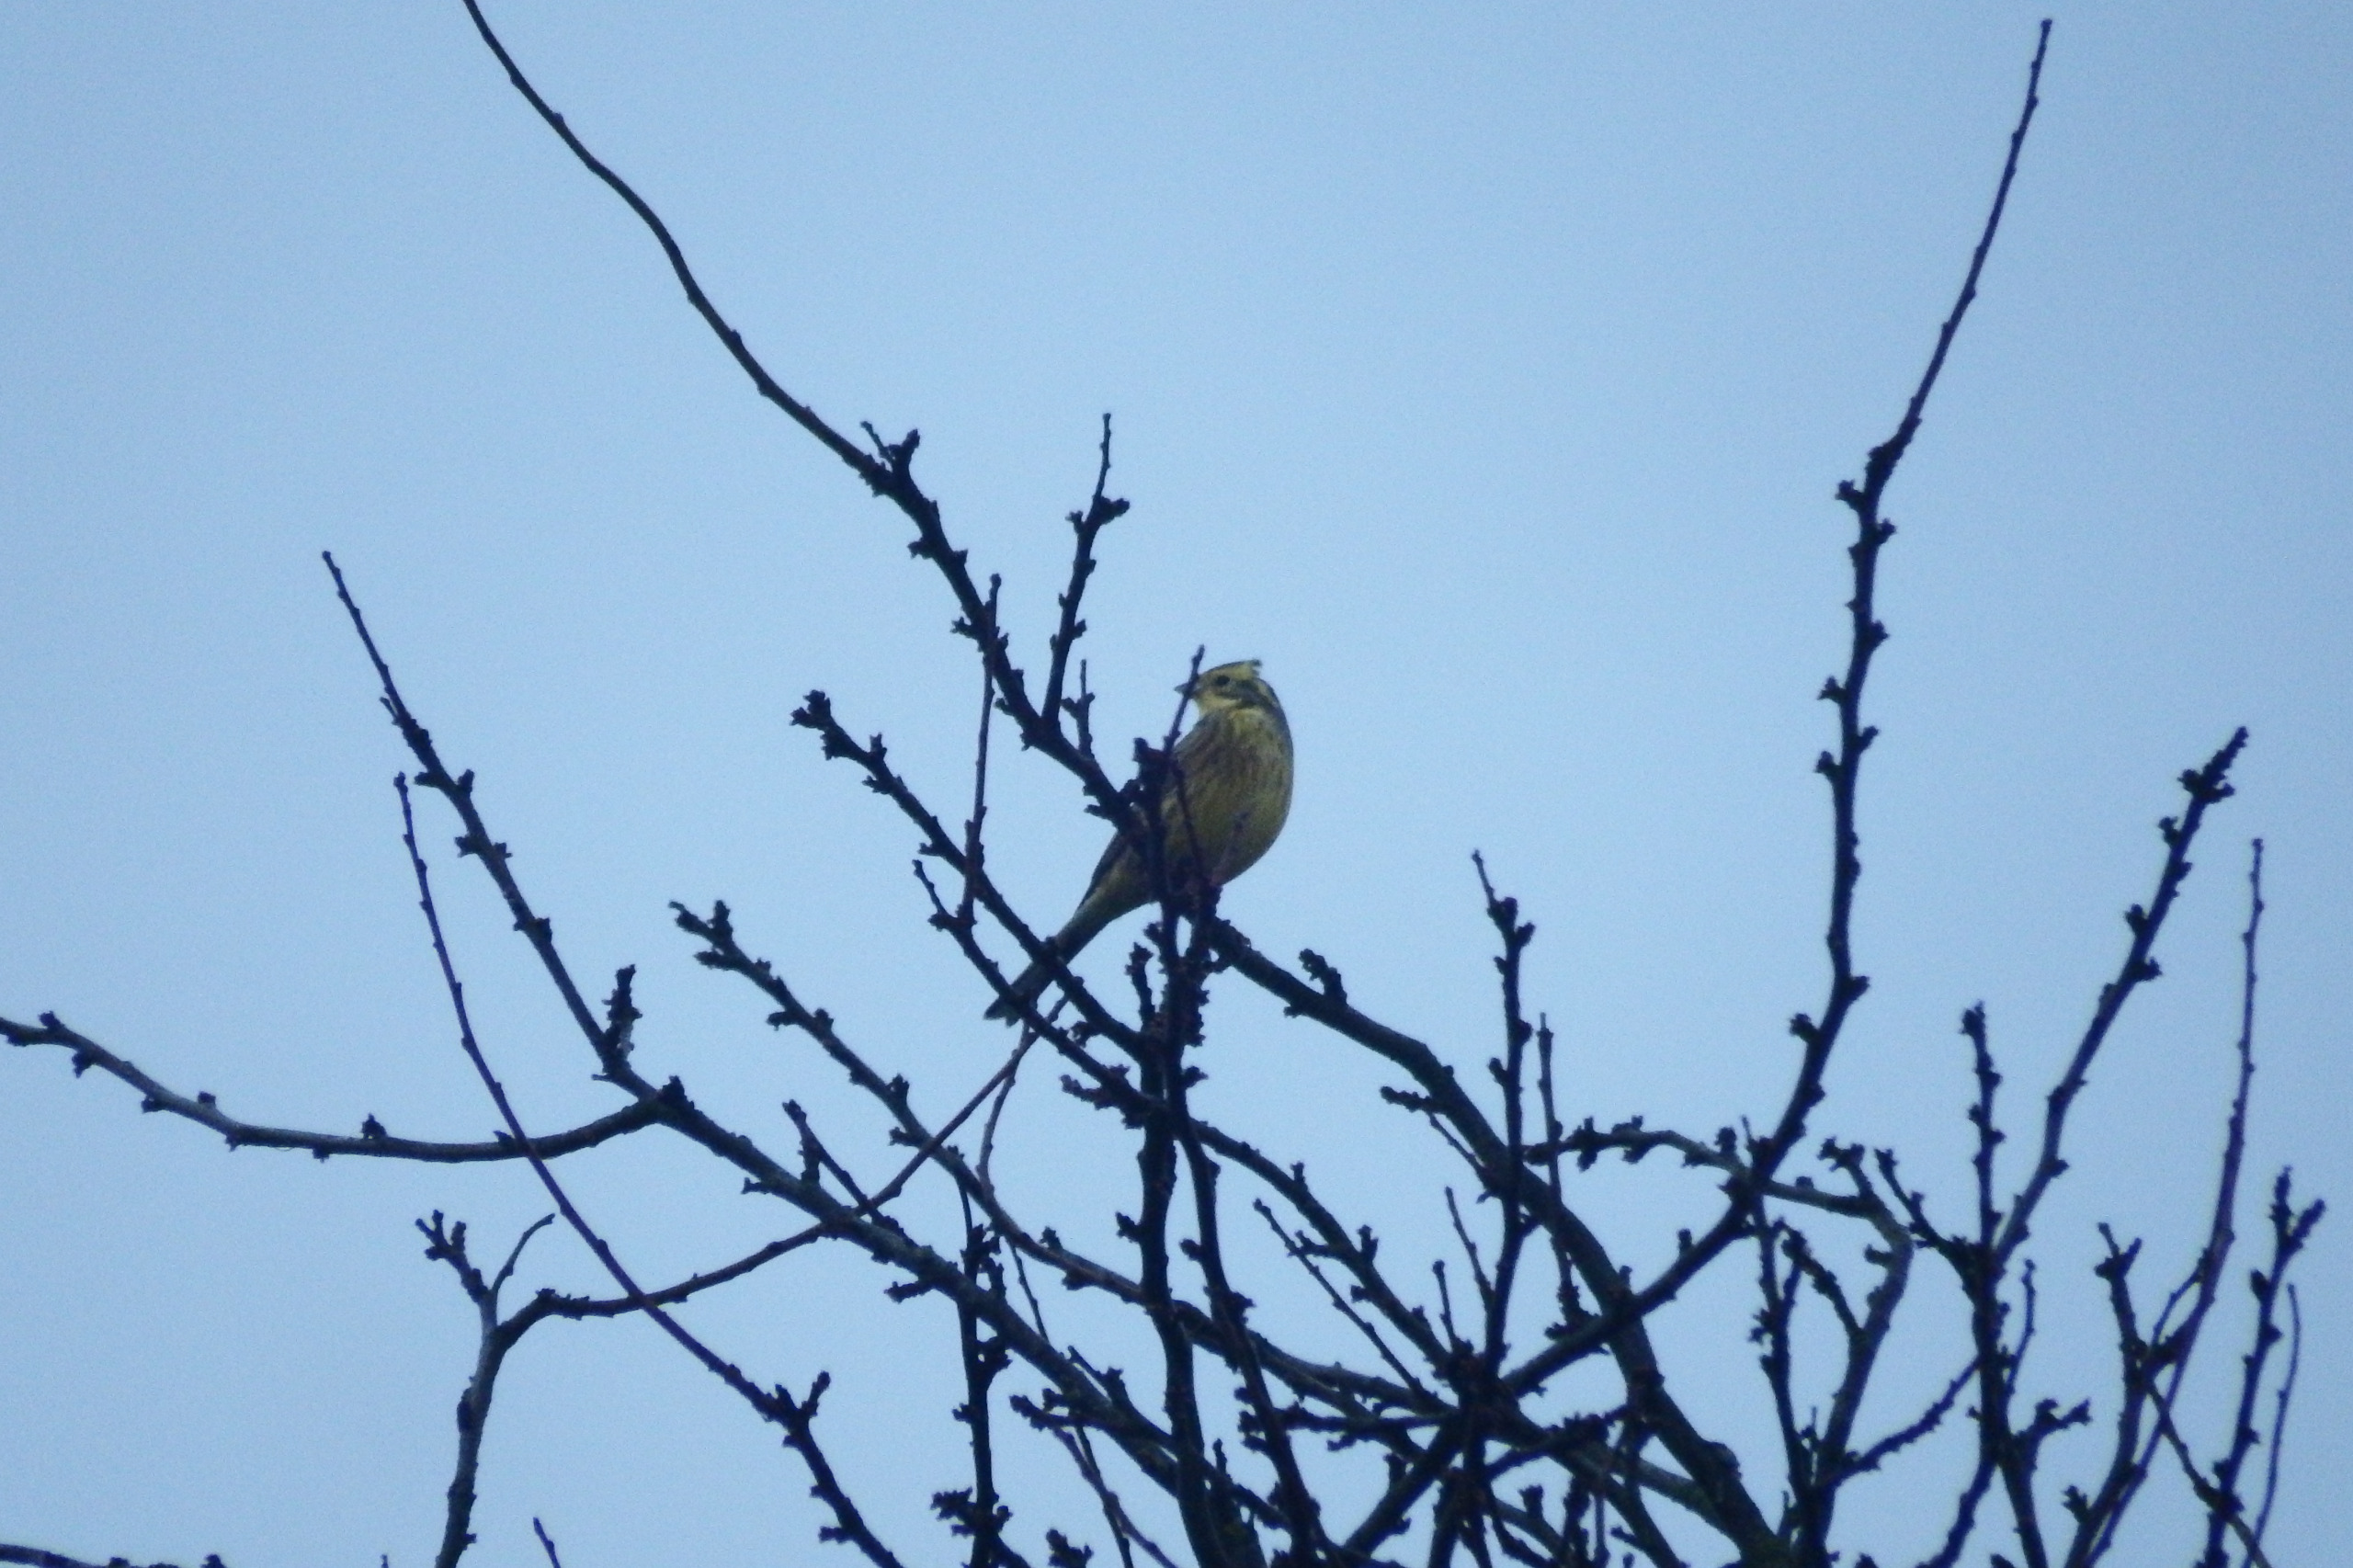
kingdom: Animalia
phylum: Chordata
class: Aves
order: Passeriformes
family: Emberizidae
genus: Emberiza
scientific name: Emberiza citrinella
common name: Gulspurv
